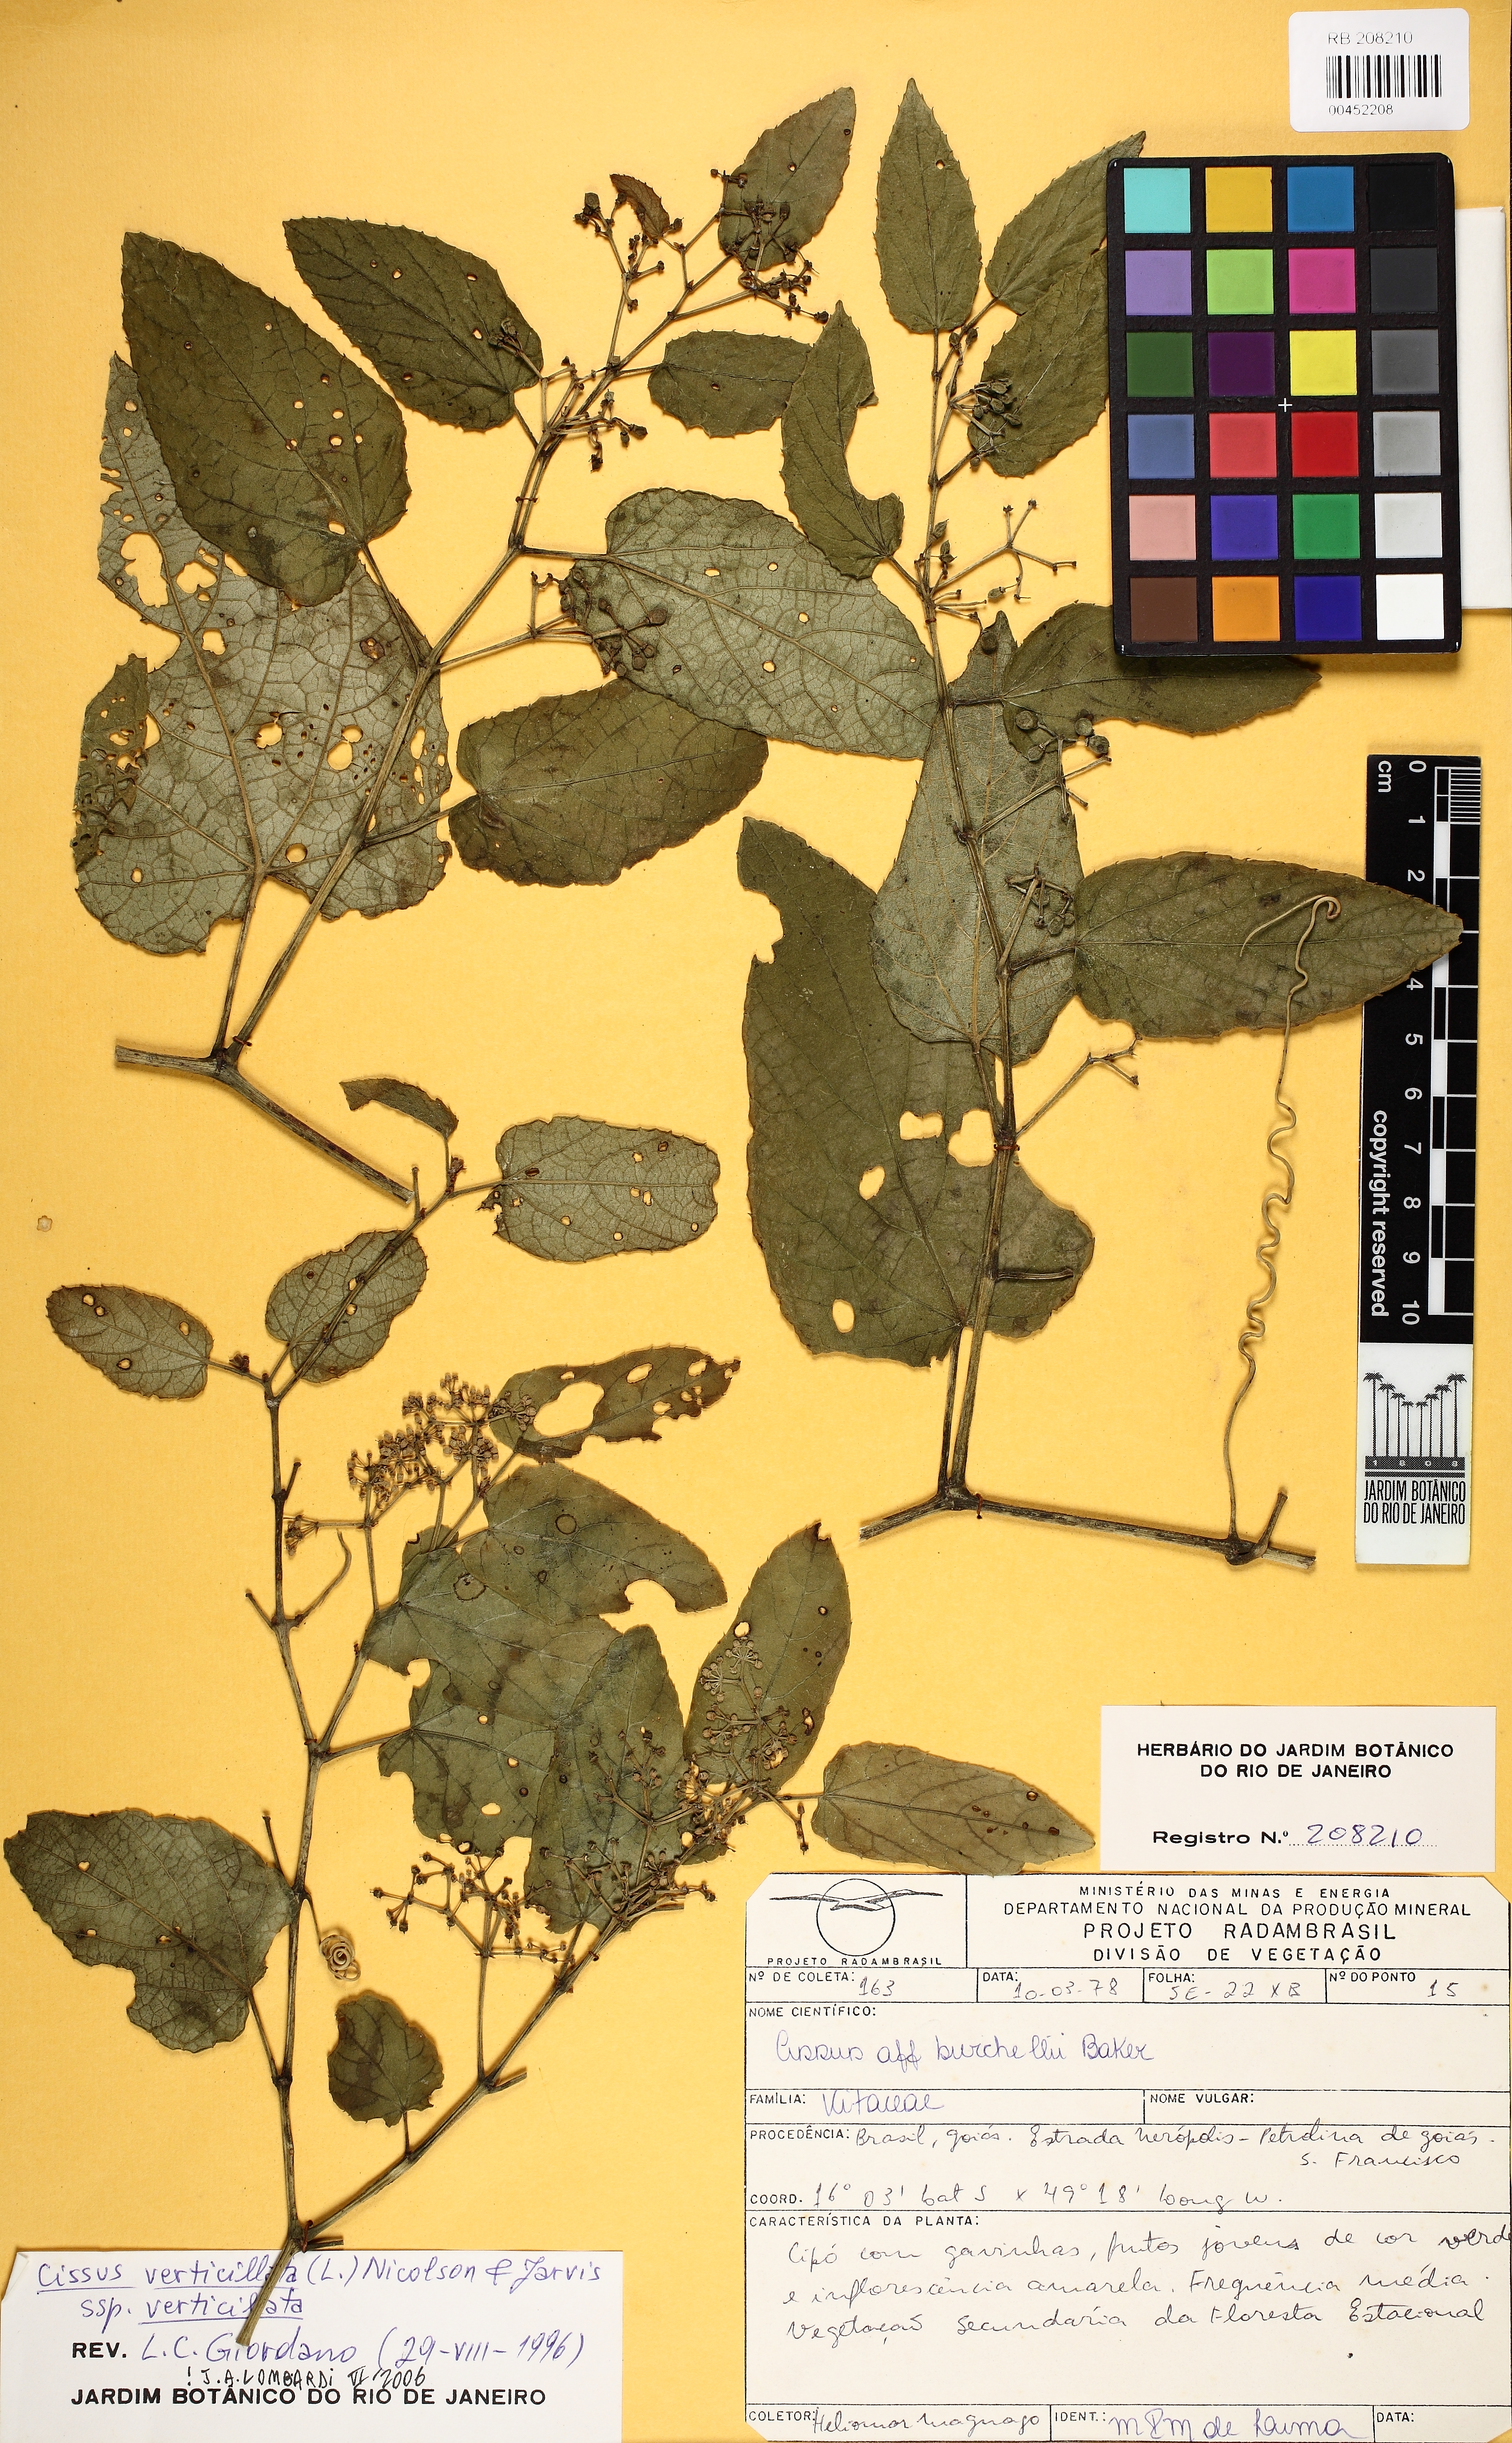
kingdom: Plantae
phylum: Tracheophyta
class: Magnoliopsida
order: Vitales
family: Vitaceae
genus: Cissus
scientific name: Cissus verticillata
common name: Princess vine
